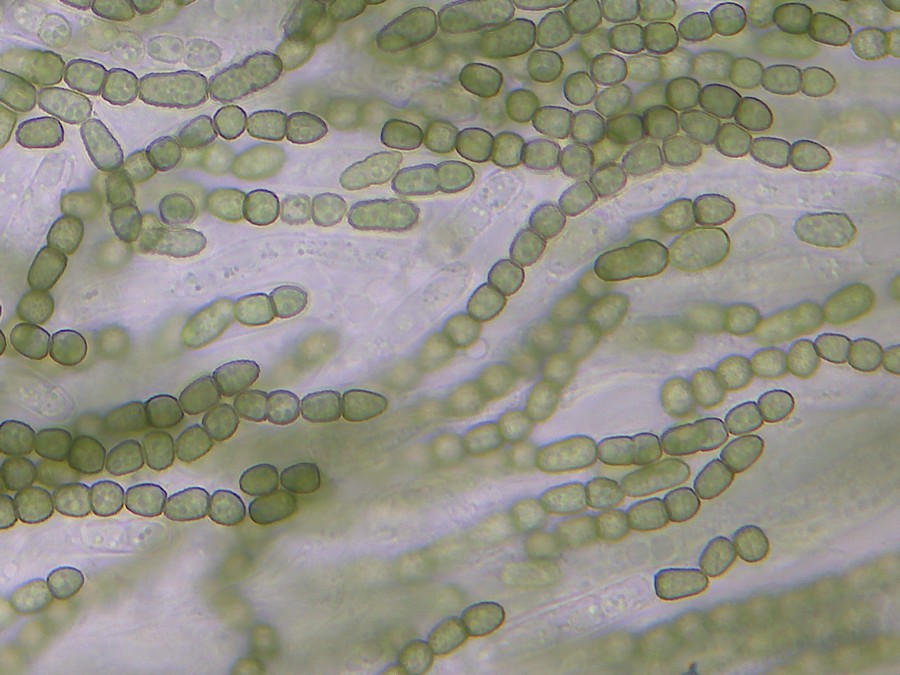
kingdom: Fungi
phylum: Ascomycota
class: Sordariomycetes
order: Hypocreales
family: Hypocreaceae
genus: Trichoderma
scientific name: Trichoderma gelatinosum
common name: geleagtig kødkerne
